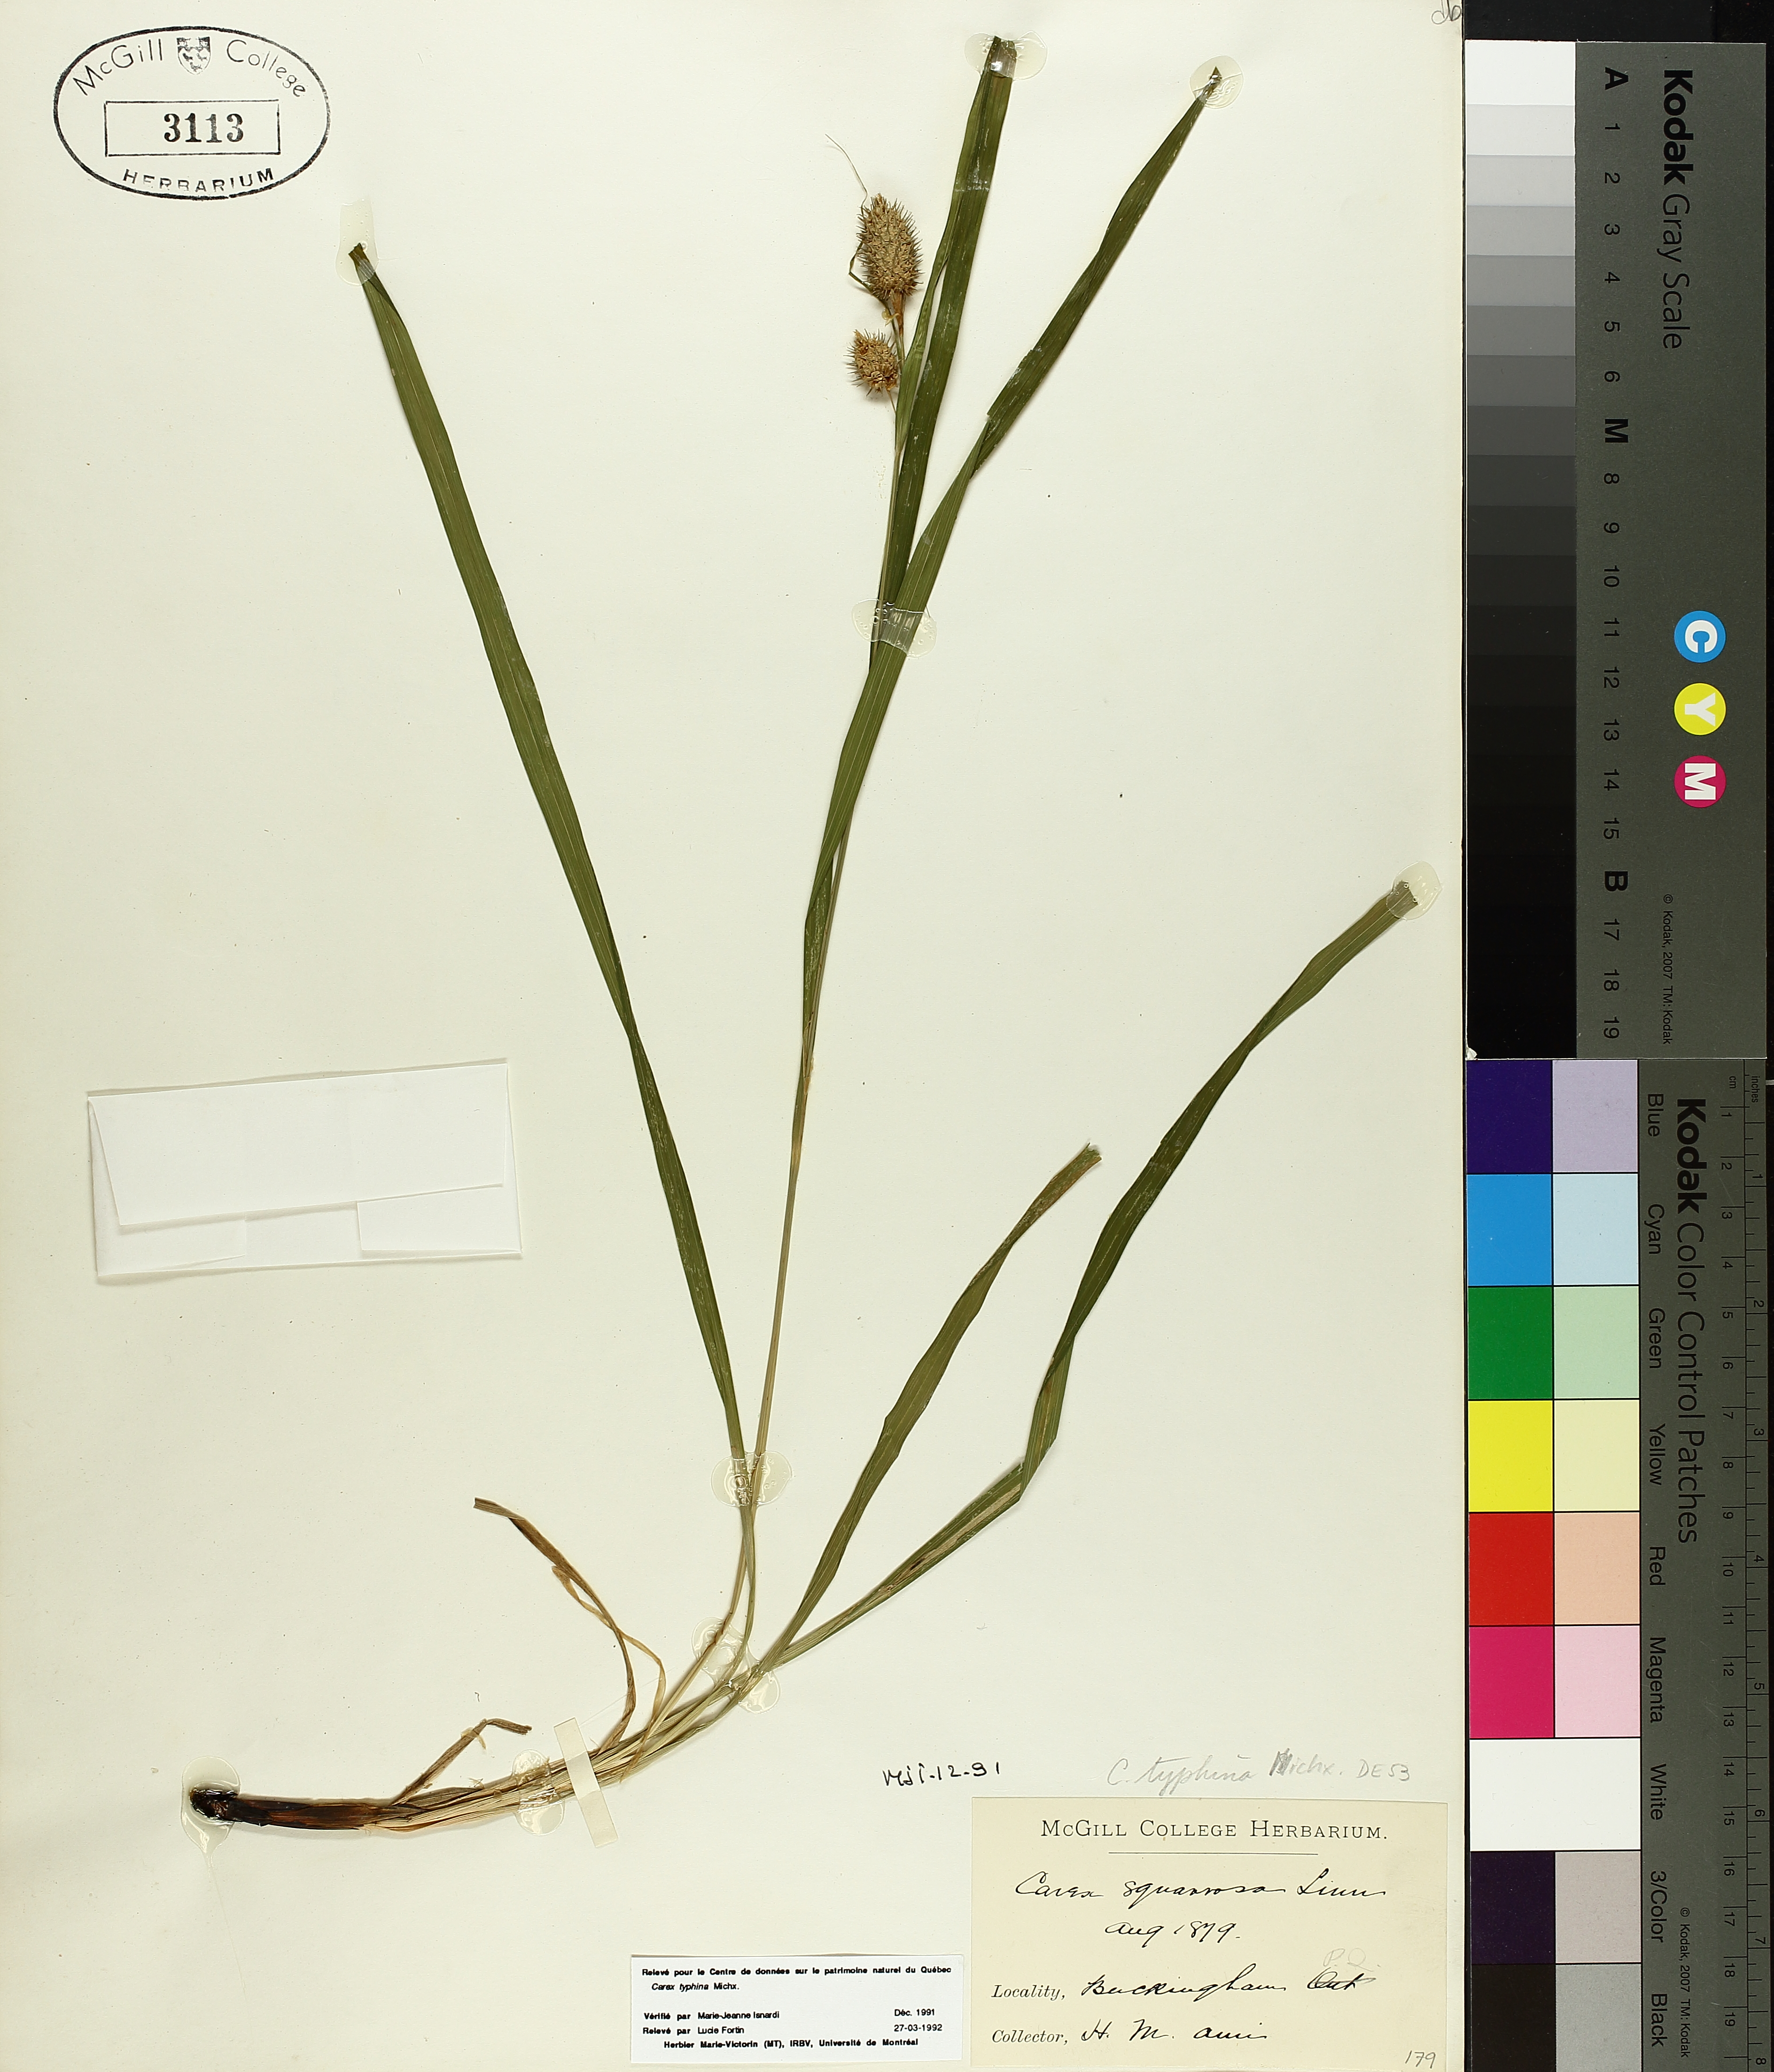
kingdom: Plantae
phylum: Tracheophyta
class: Liliopsida
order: Poales
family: Cyperaceae
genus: Carex
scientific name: Carex typhina
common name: Cattail sedge
